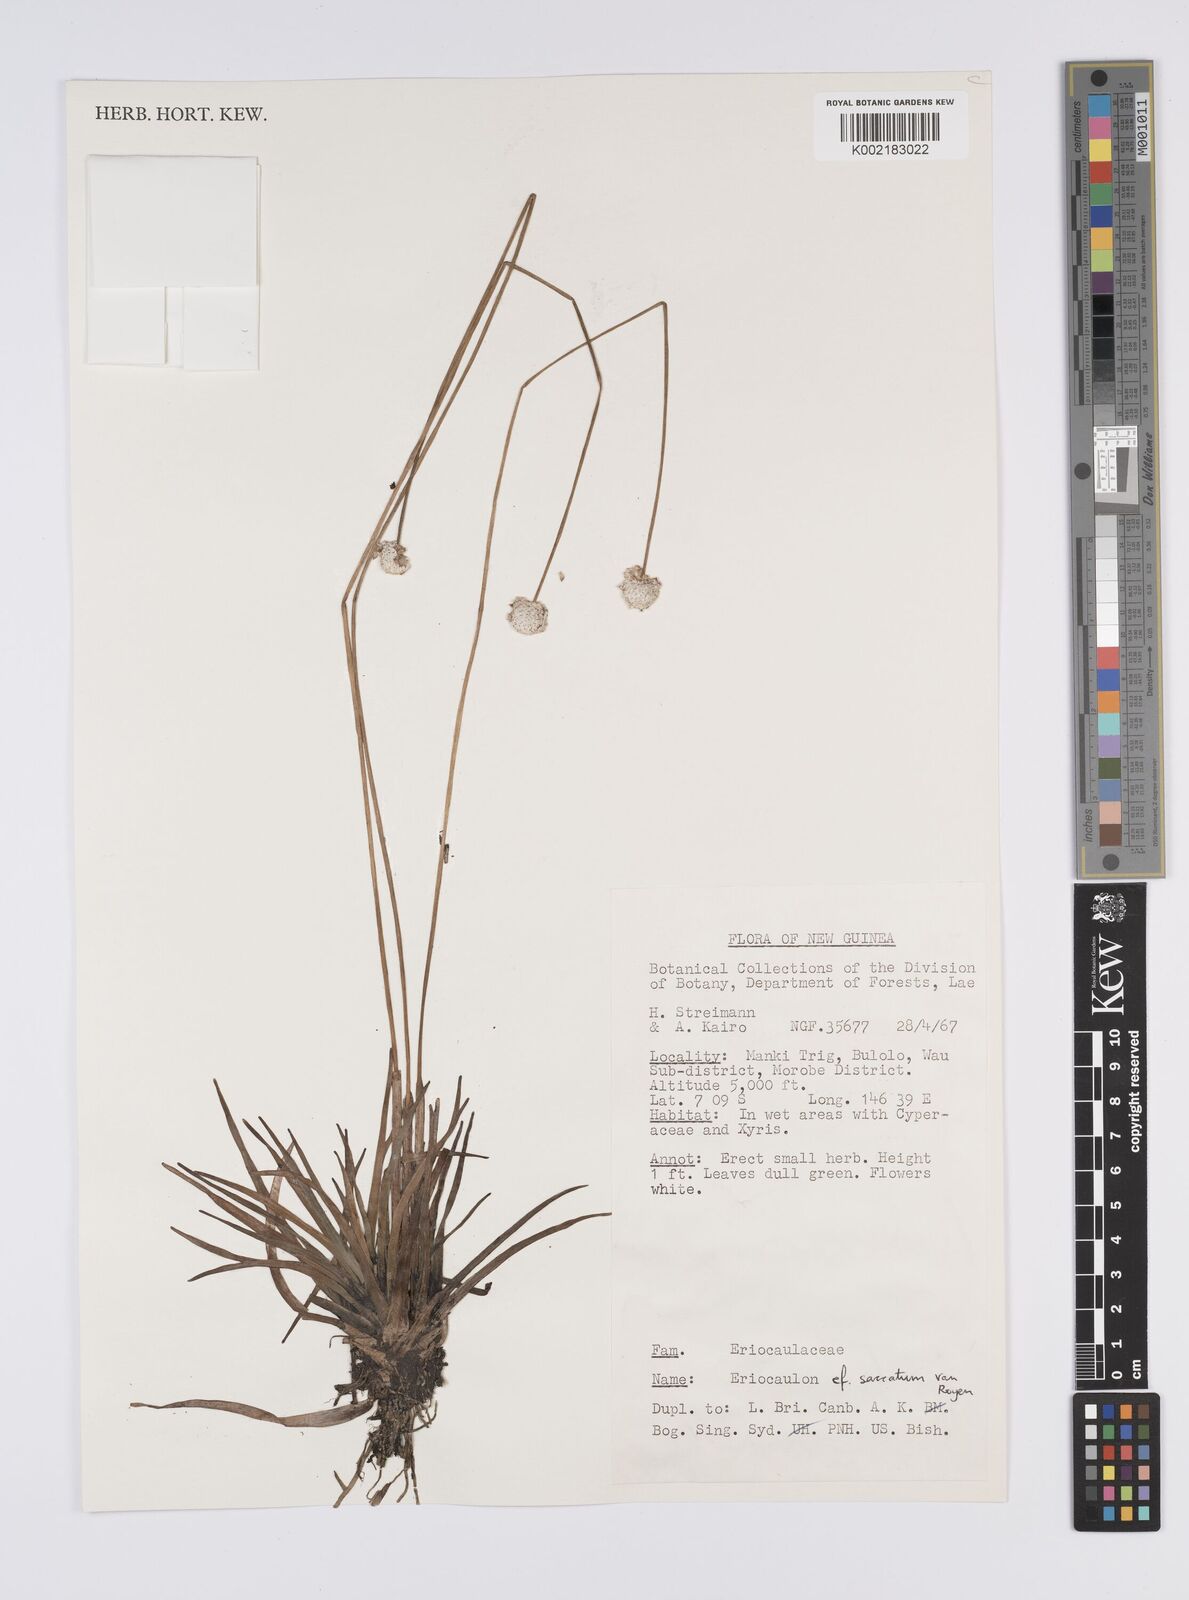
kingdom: Plantae
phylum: Tracheophyta
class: Liliopsida
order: Poales
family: Eriocaulaceae
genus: Eriocaulon
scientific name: Eriocaulon saccatum
